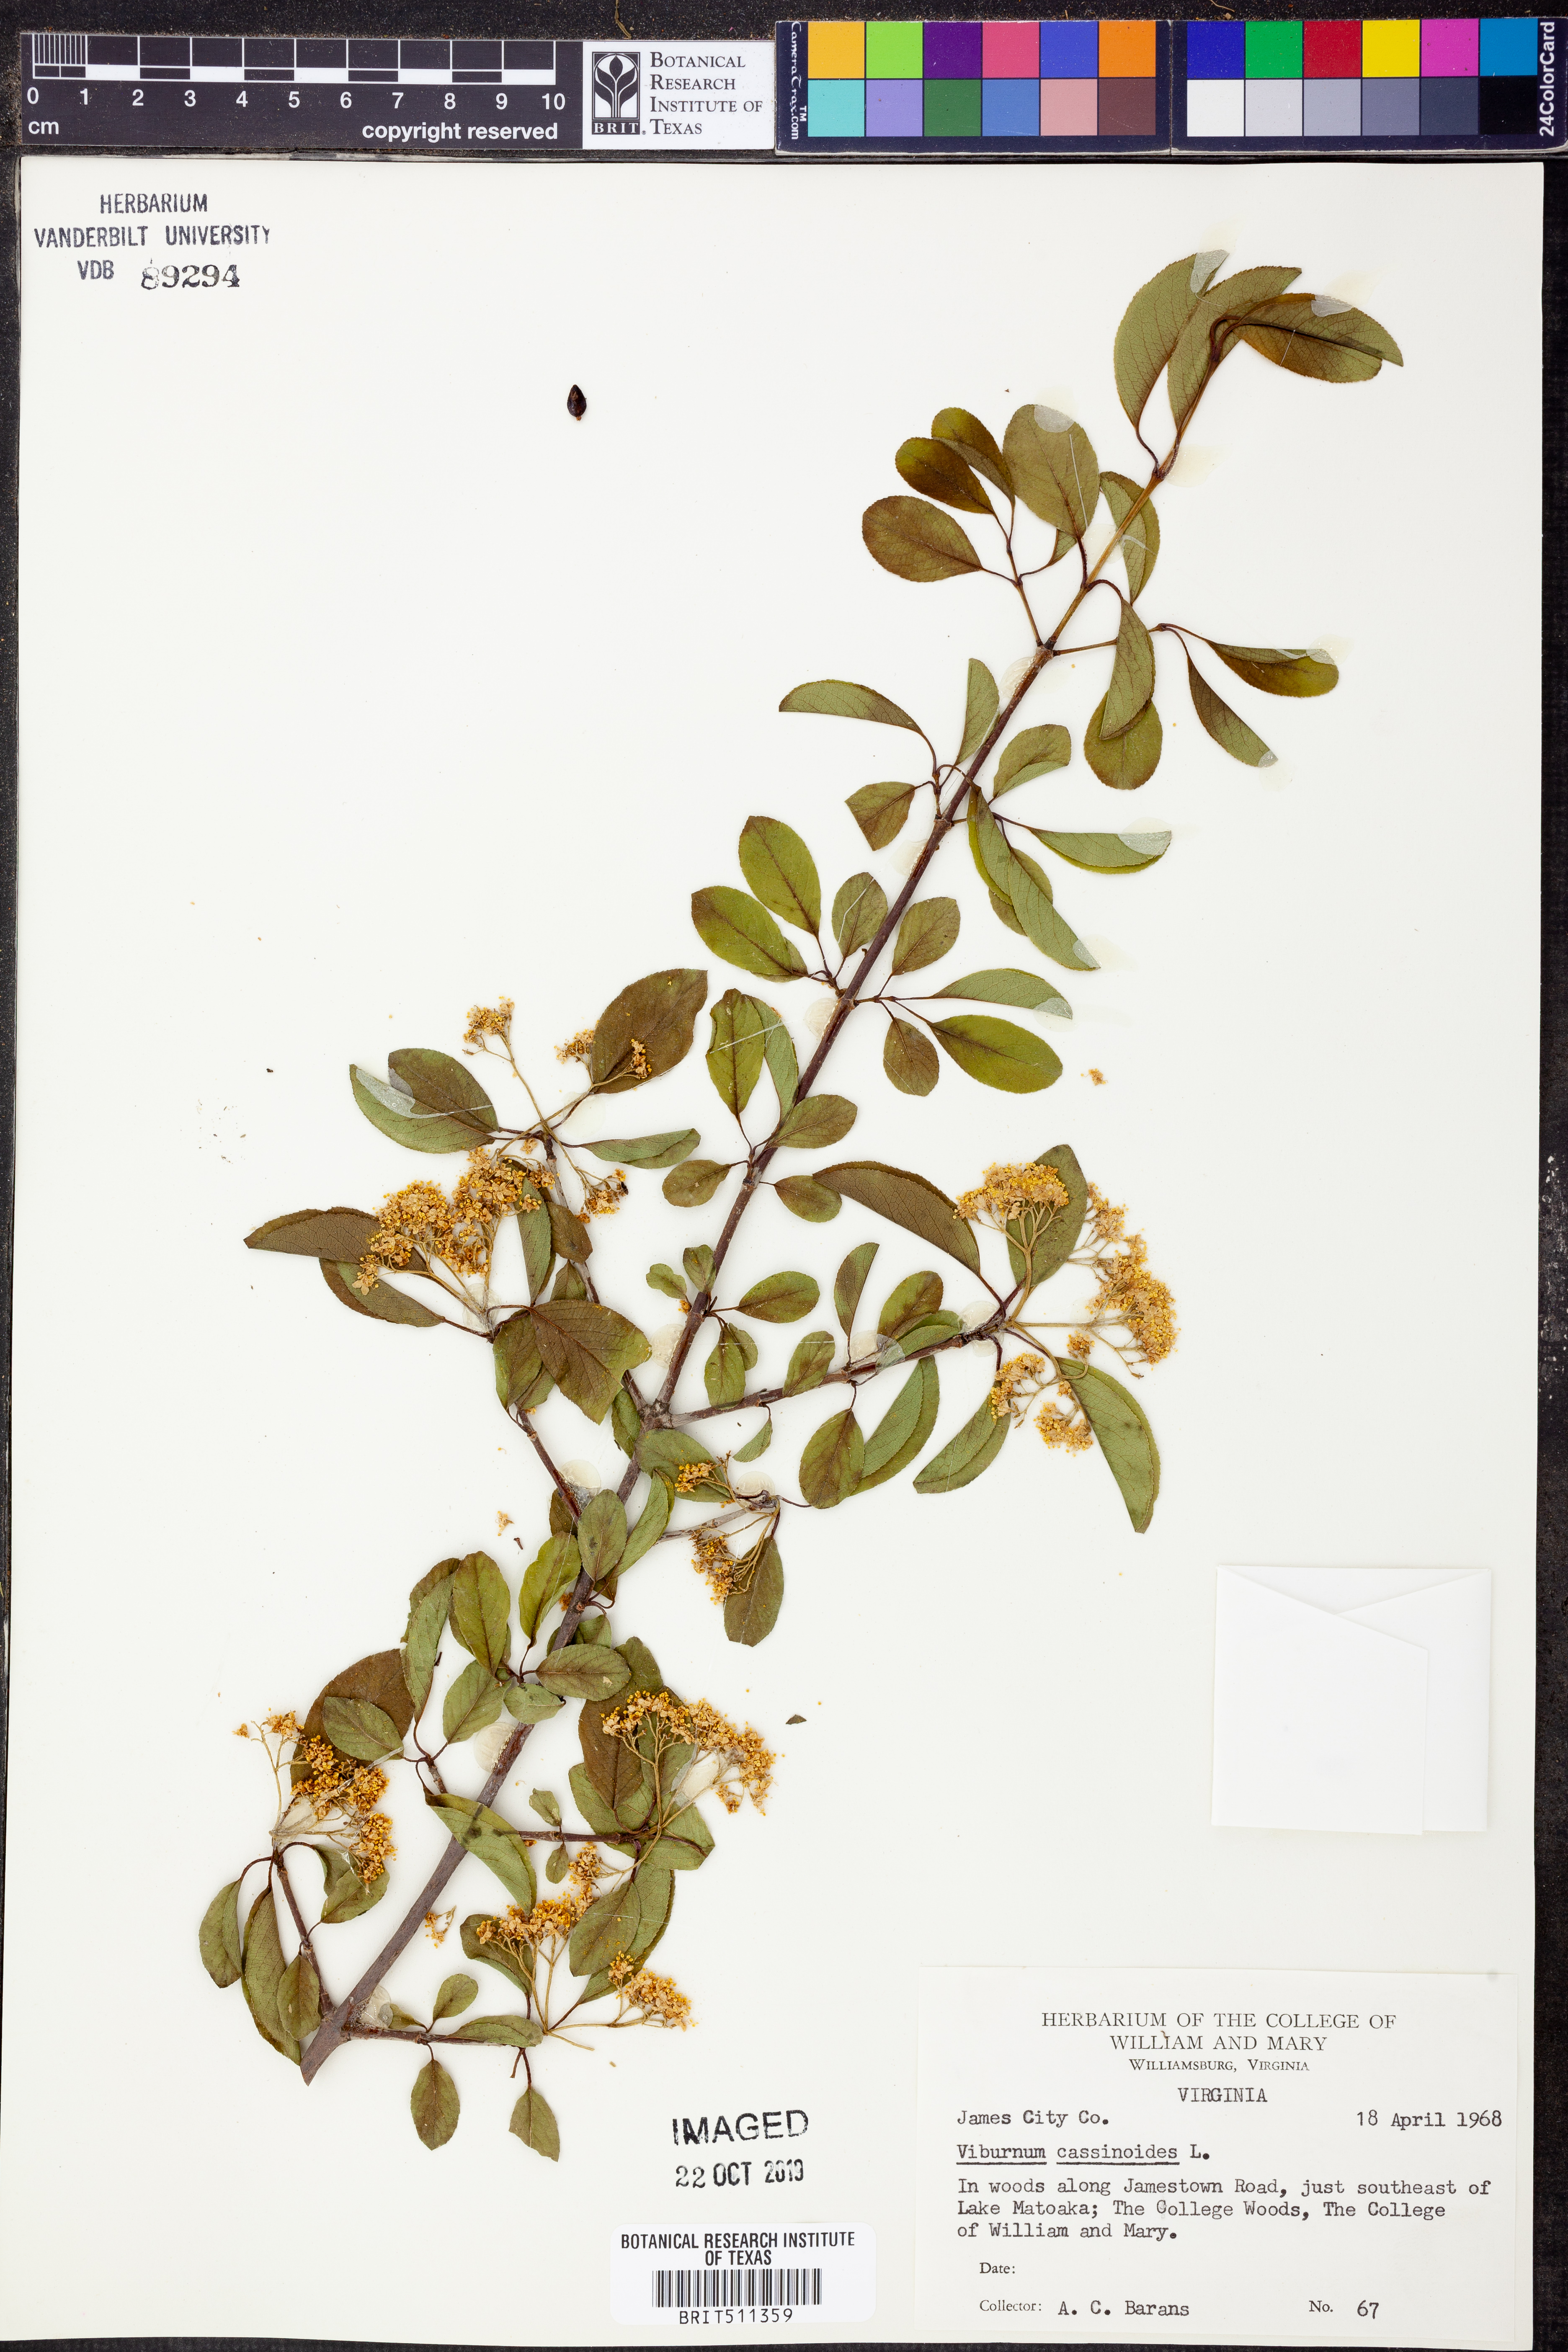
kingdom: Plantae
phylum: Tracheophyta
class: Magnoliopsida
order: Dipsacales
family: Viburnaceae
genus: Viburnum
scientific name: Viburnum cassinoides
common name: Swamp haw
